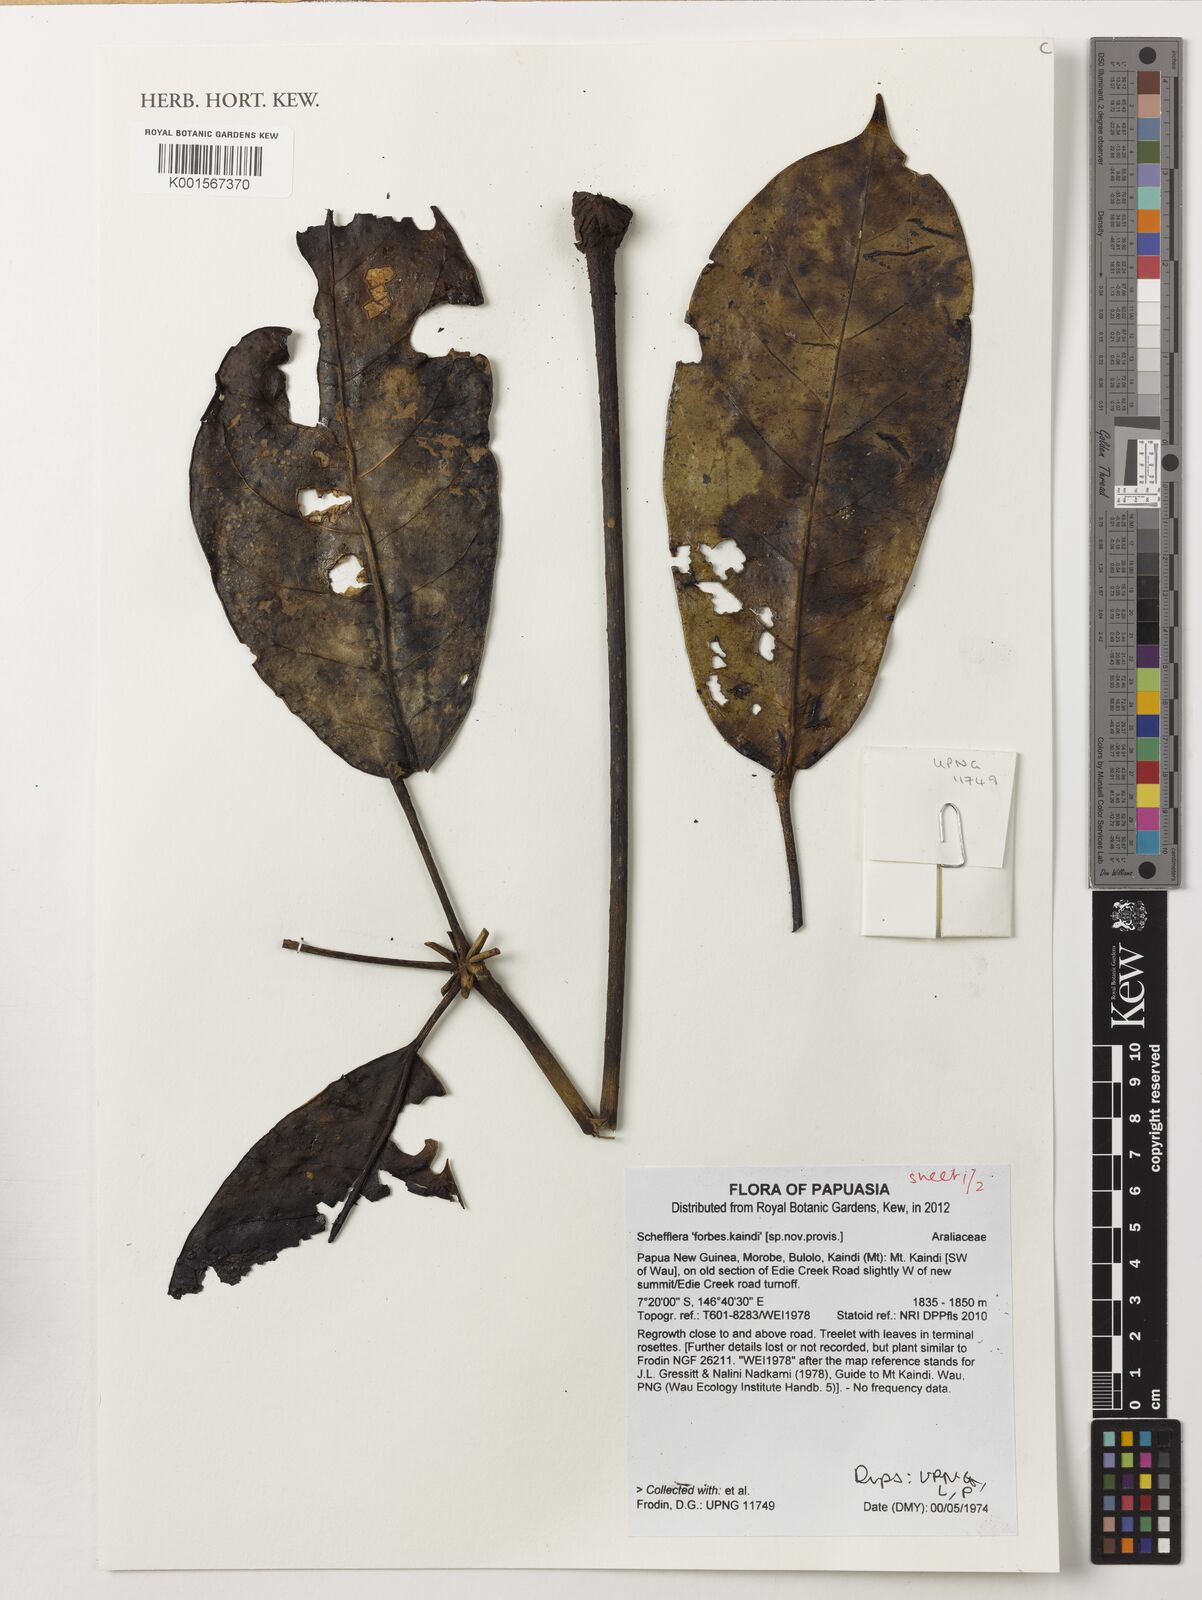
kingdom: Plantae
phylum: Tracheophyta
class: Magnoliopsida
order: Apiales
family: Araliaceae
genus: Schefflera
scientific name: Schefflera
